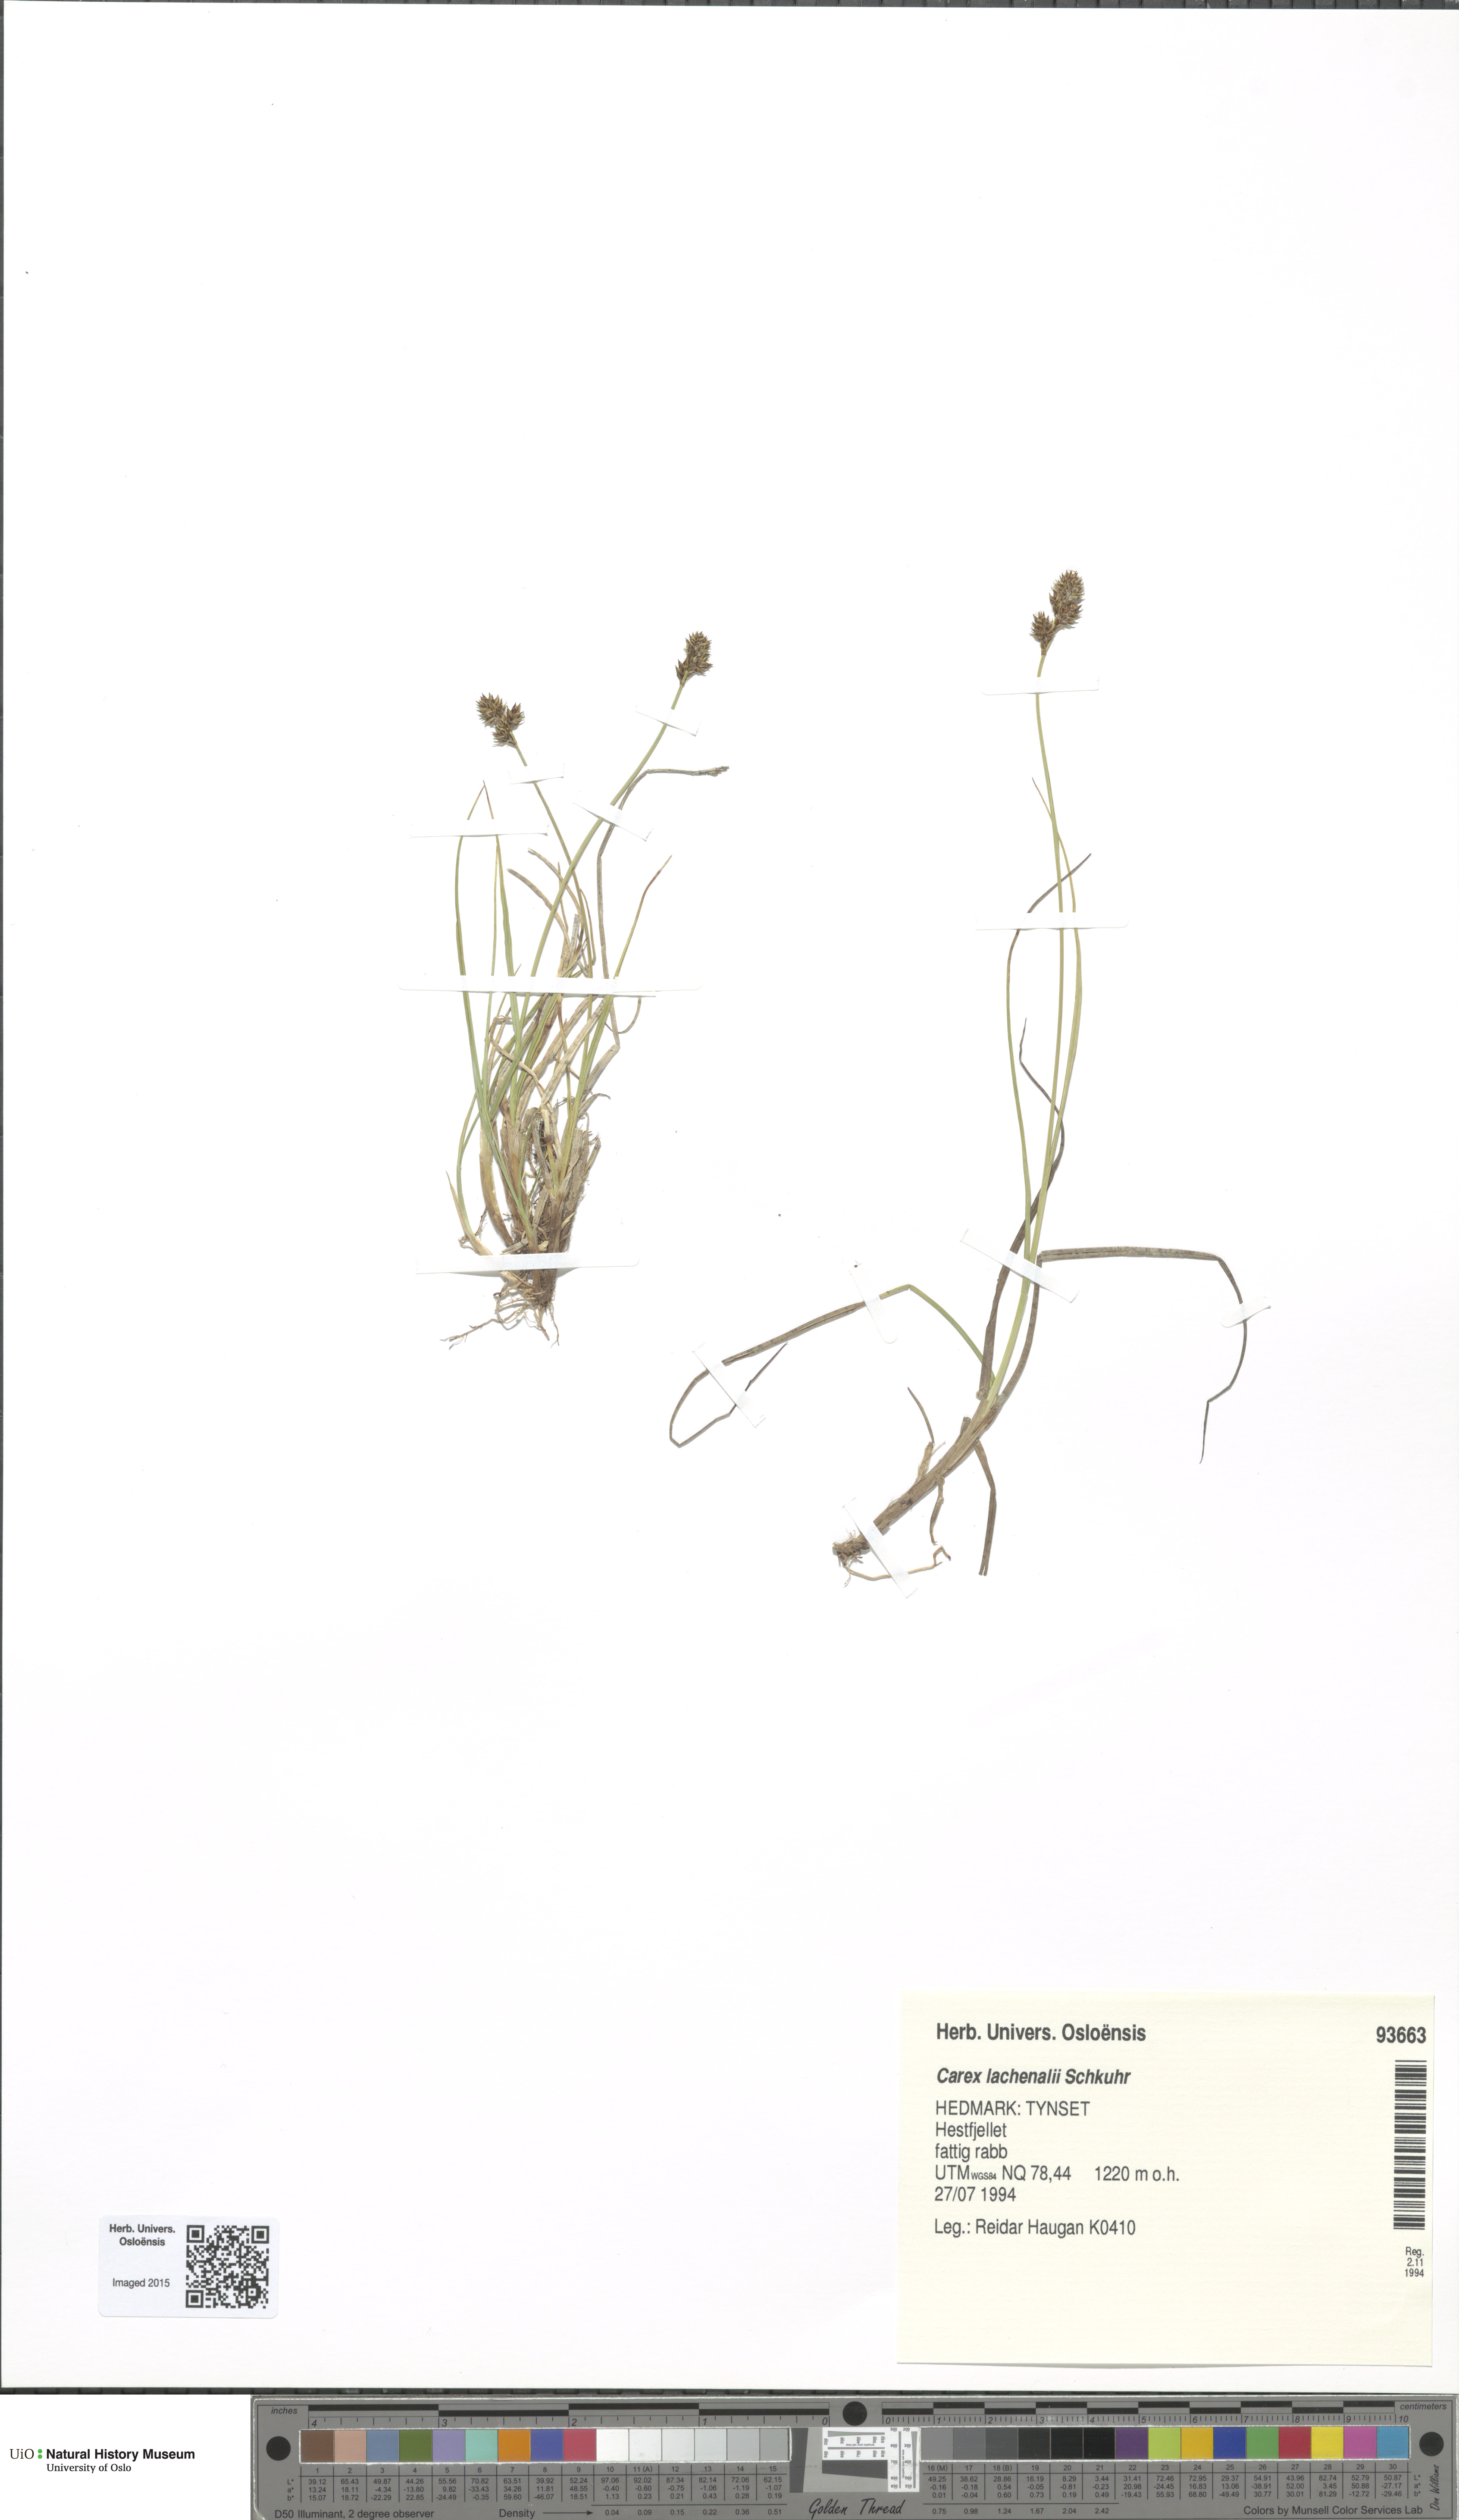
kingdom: Plantae
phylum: Tracheophyta
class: Liliopsida
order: Poales
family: Cyperaceae
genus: Carex
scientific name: Carex lachenalii
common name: Hare's-foot sedge
